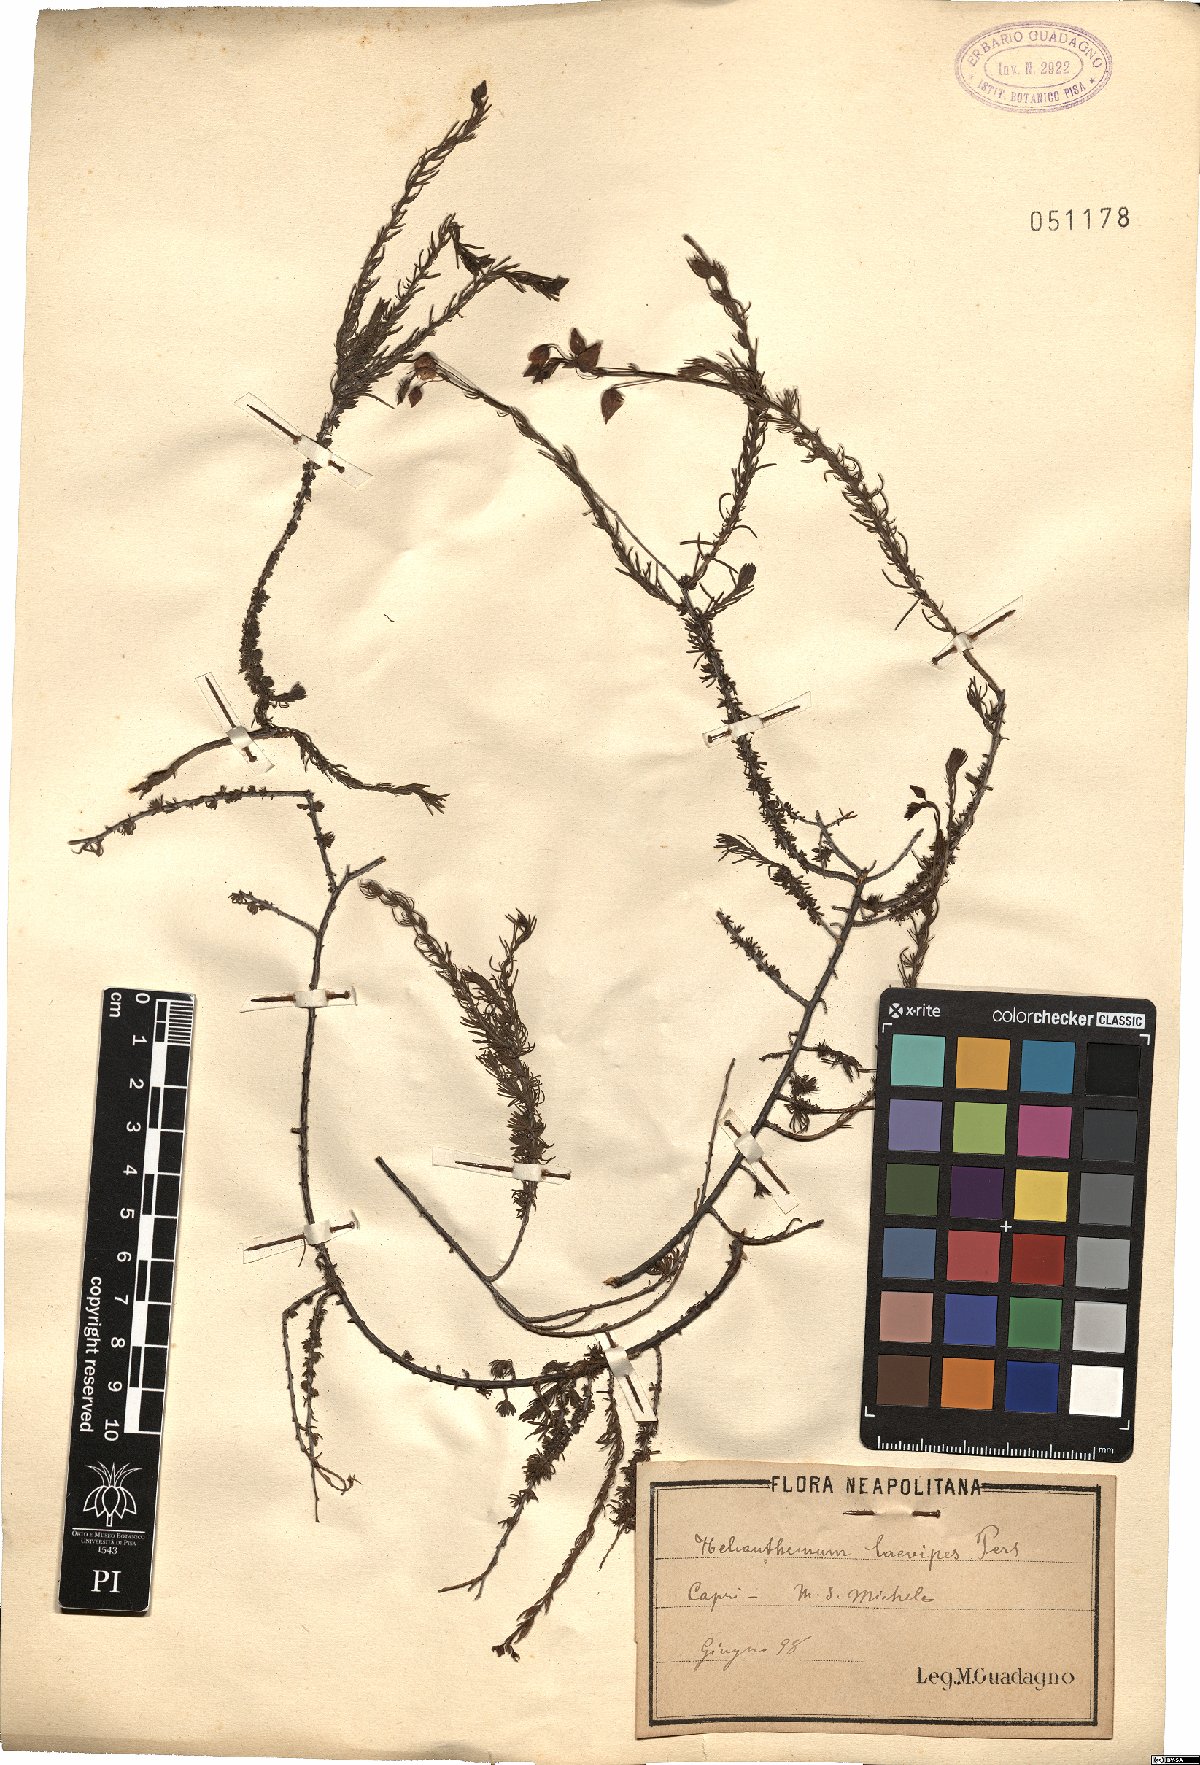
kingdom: Plantae
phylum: Tracheophyta
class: Magnoliopsida
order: Malvales
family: Cistaceae
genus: Fumana
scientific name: Fumana laevipes
